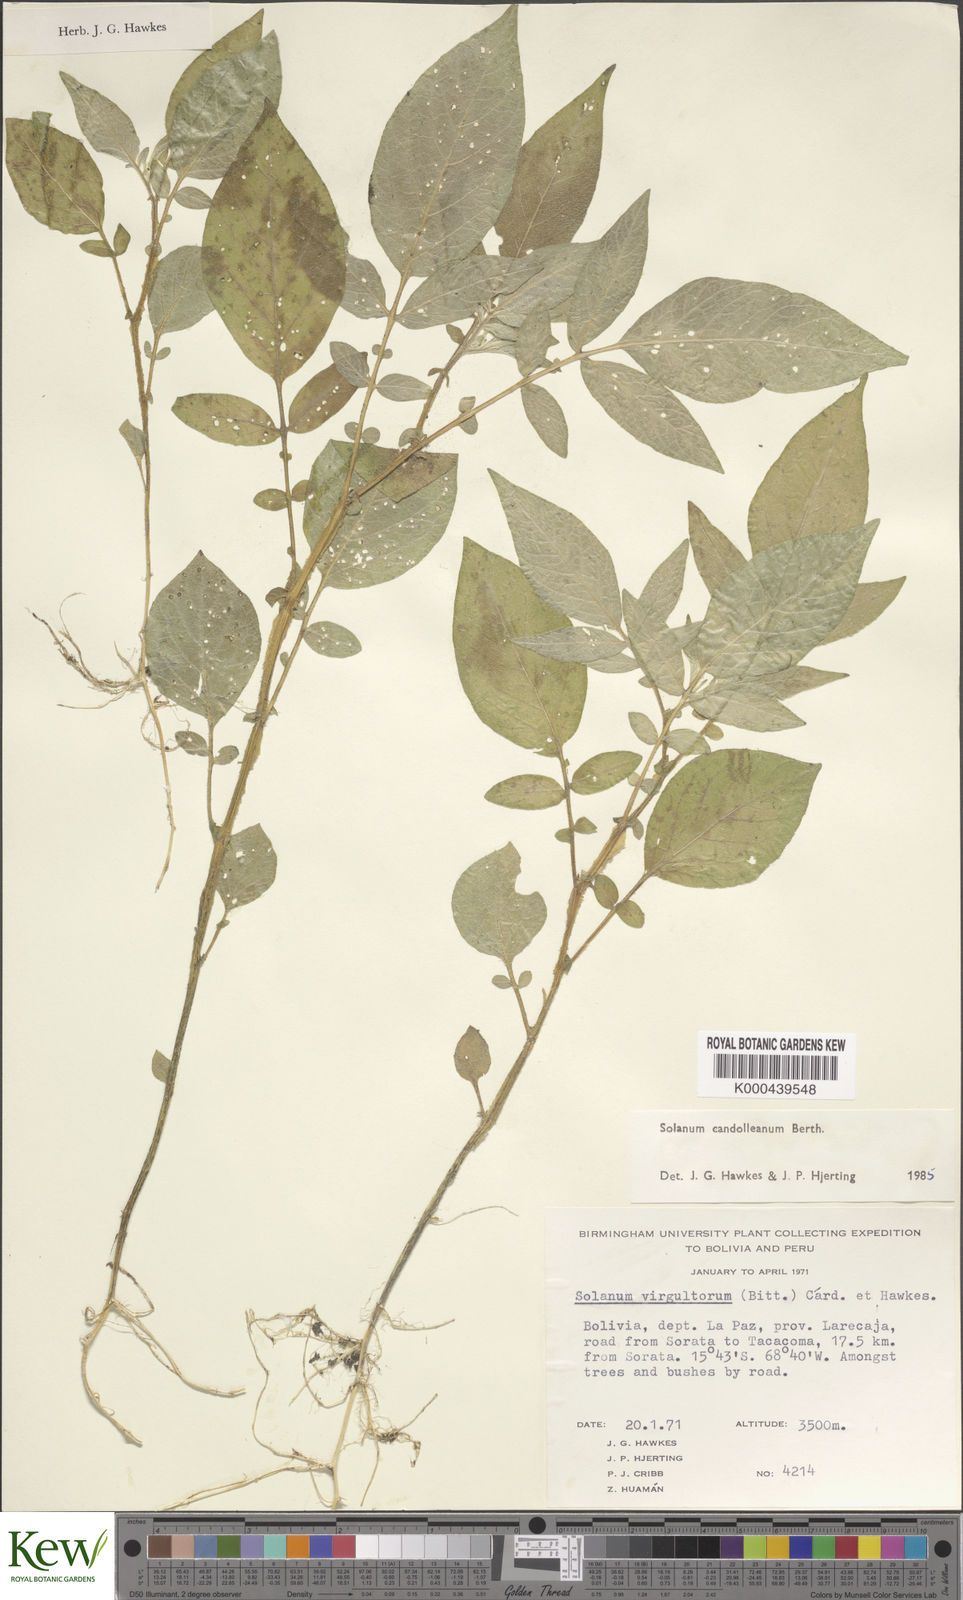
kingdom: Plantae
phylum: Tracheophyta
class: Magnoliopsida
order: Solanales
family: Solanaceae
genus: Solanum
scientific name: Solanum brevicaule
